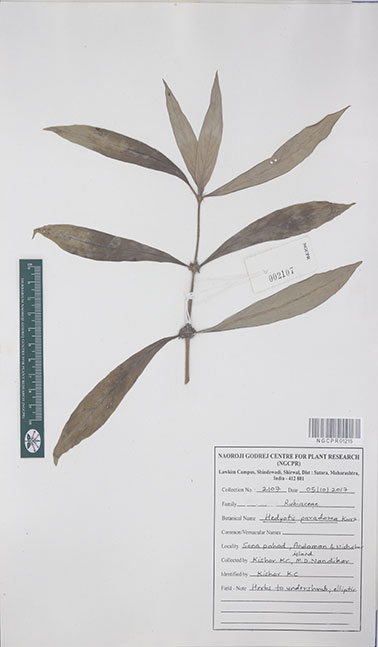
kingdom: Plantae
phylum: Tracheophyta
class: Magnoliopsida
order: Gentianales
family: Rubiaceae
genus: Exallage
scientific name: Exallage paradoxa
